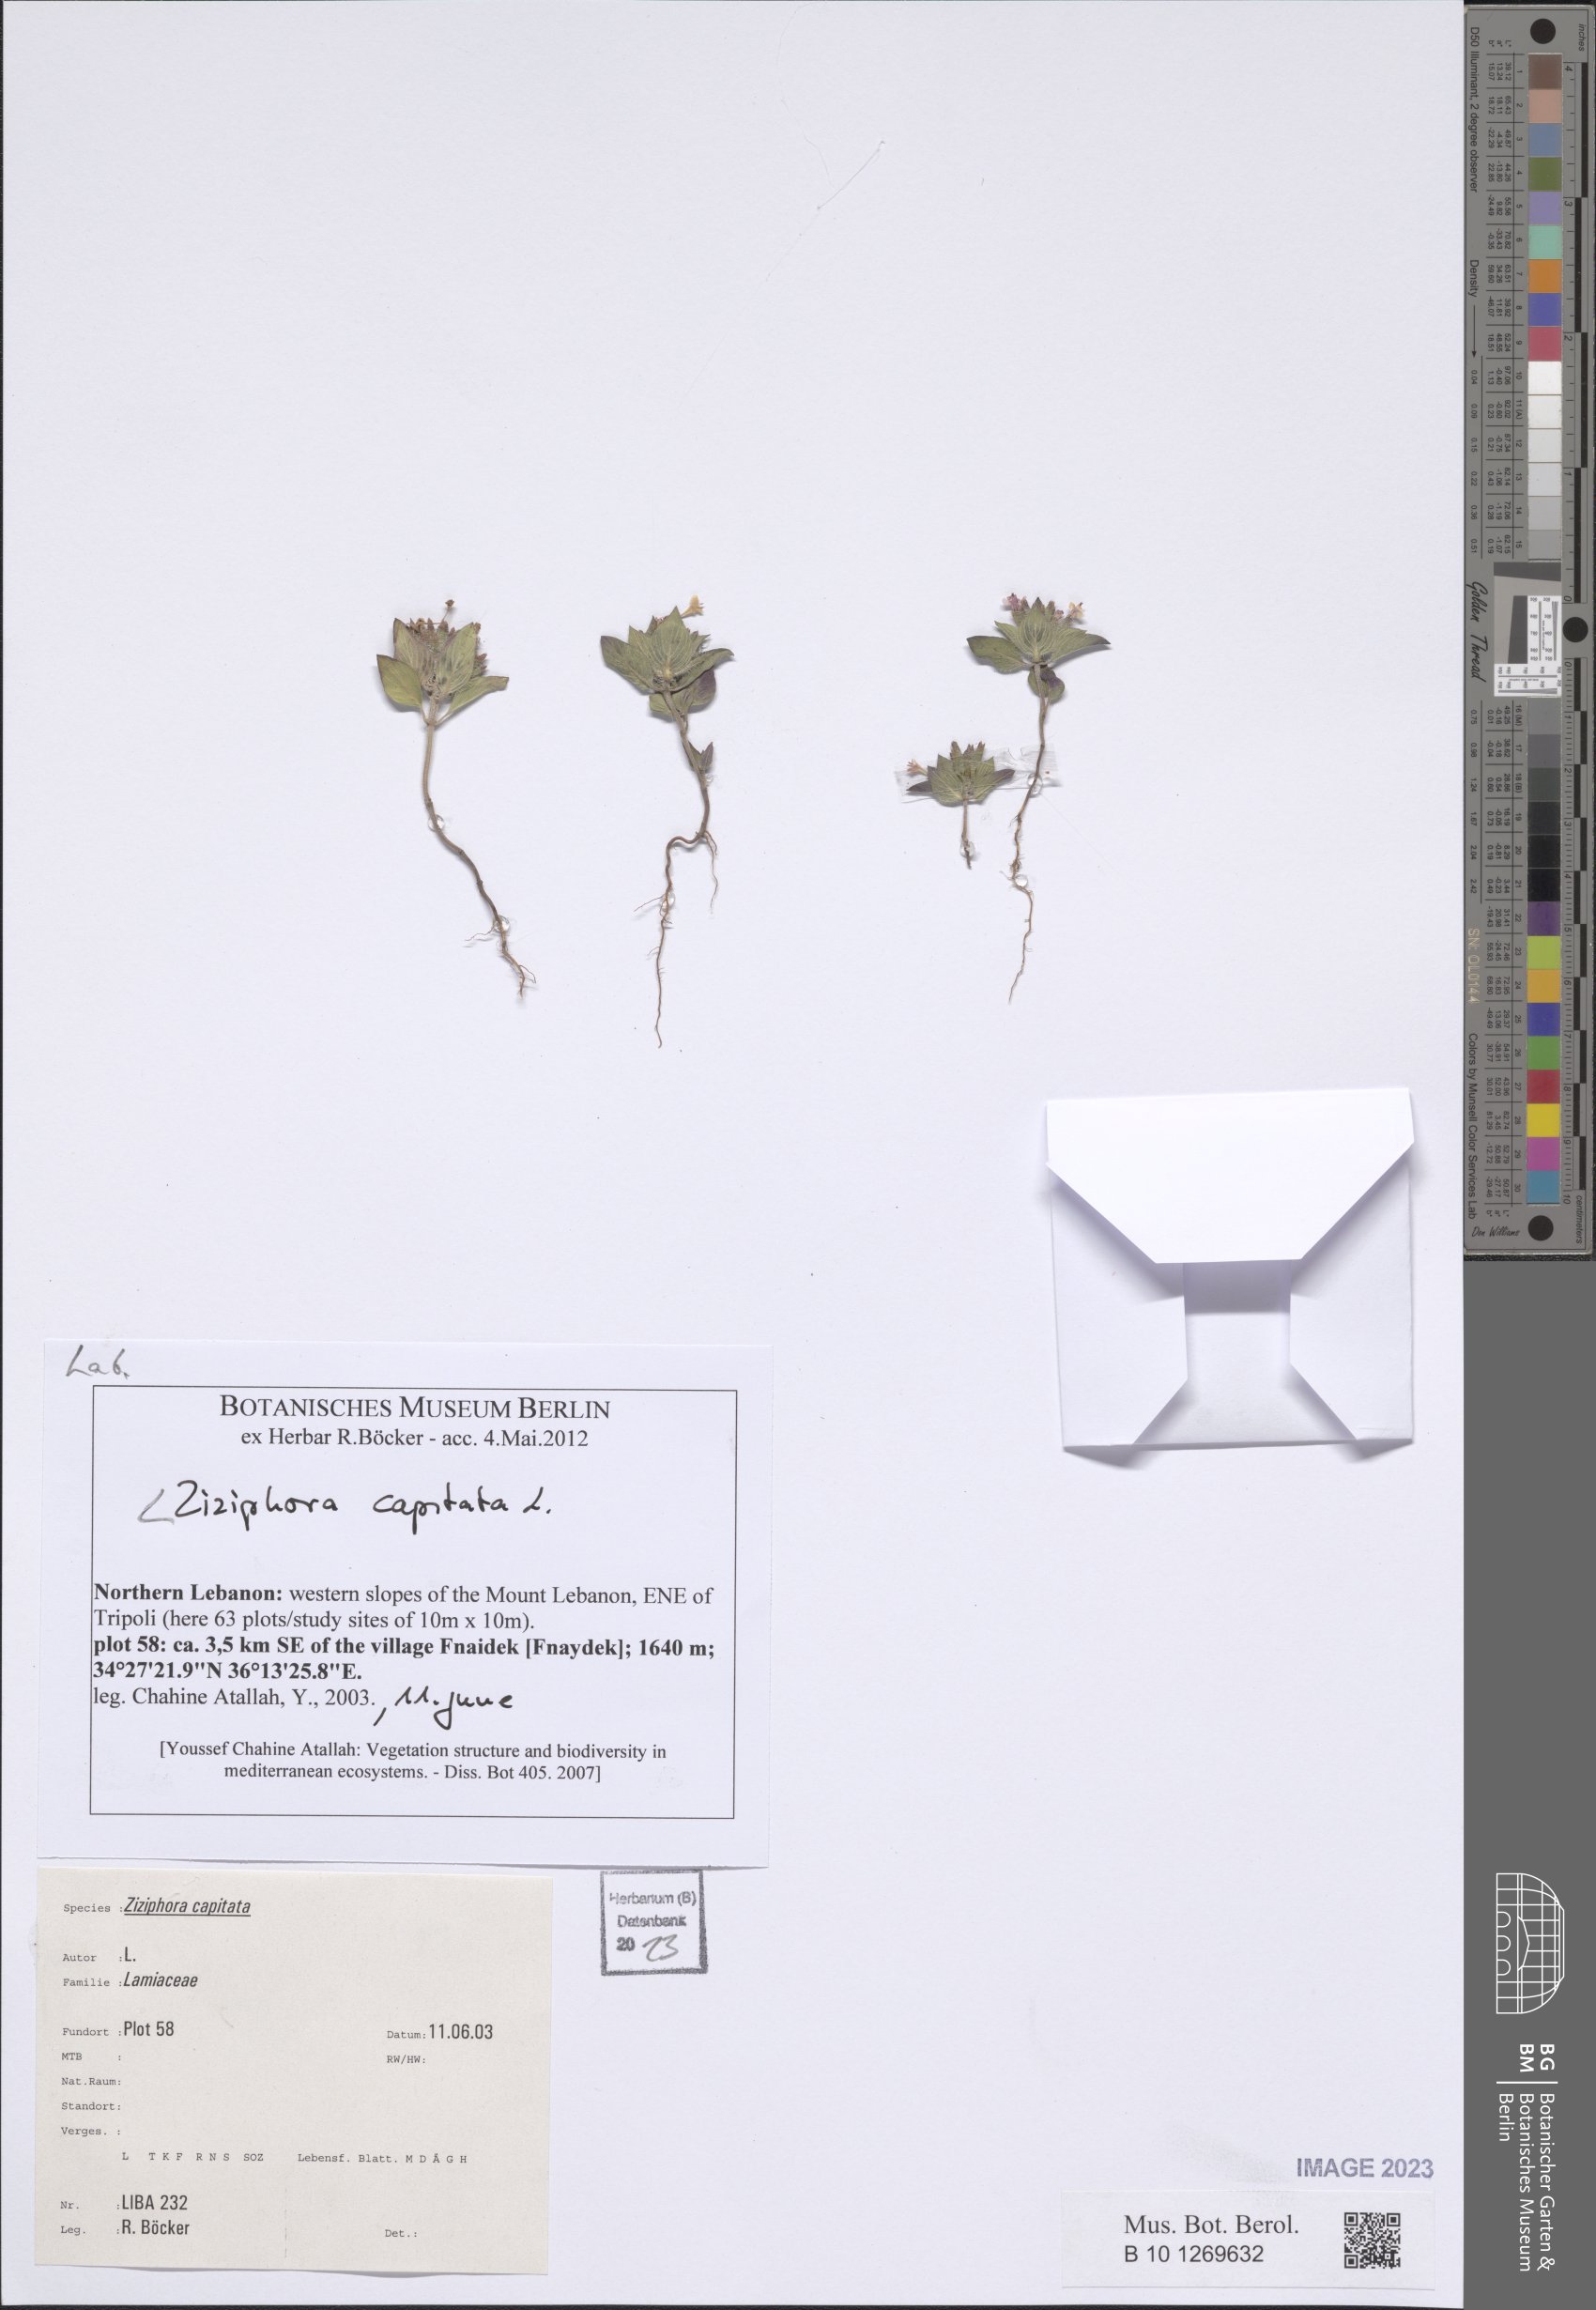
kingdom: Plantae
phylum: Tracheophyta
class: Magnoliopsida
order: Lamiales
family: Lamiaceae
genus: Ziziphora
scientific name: Ziziphora capitata
